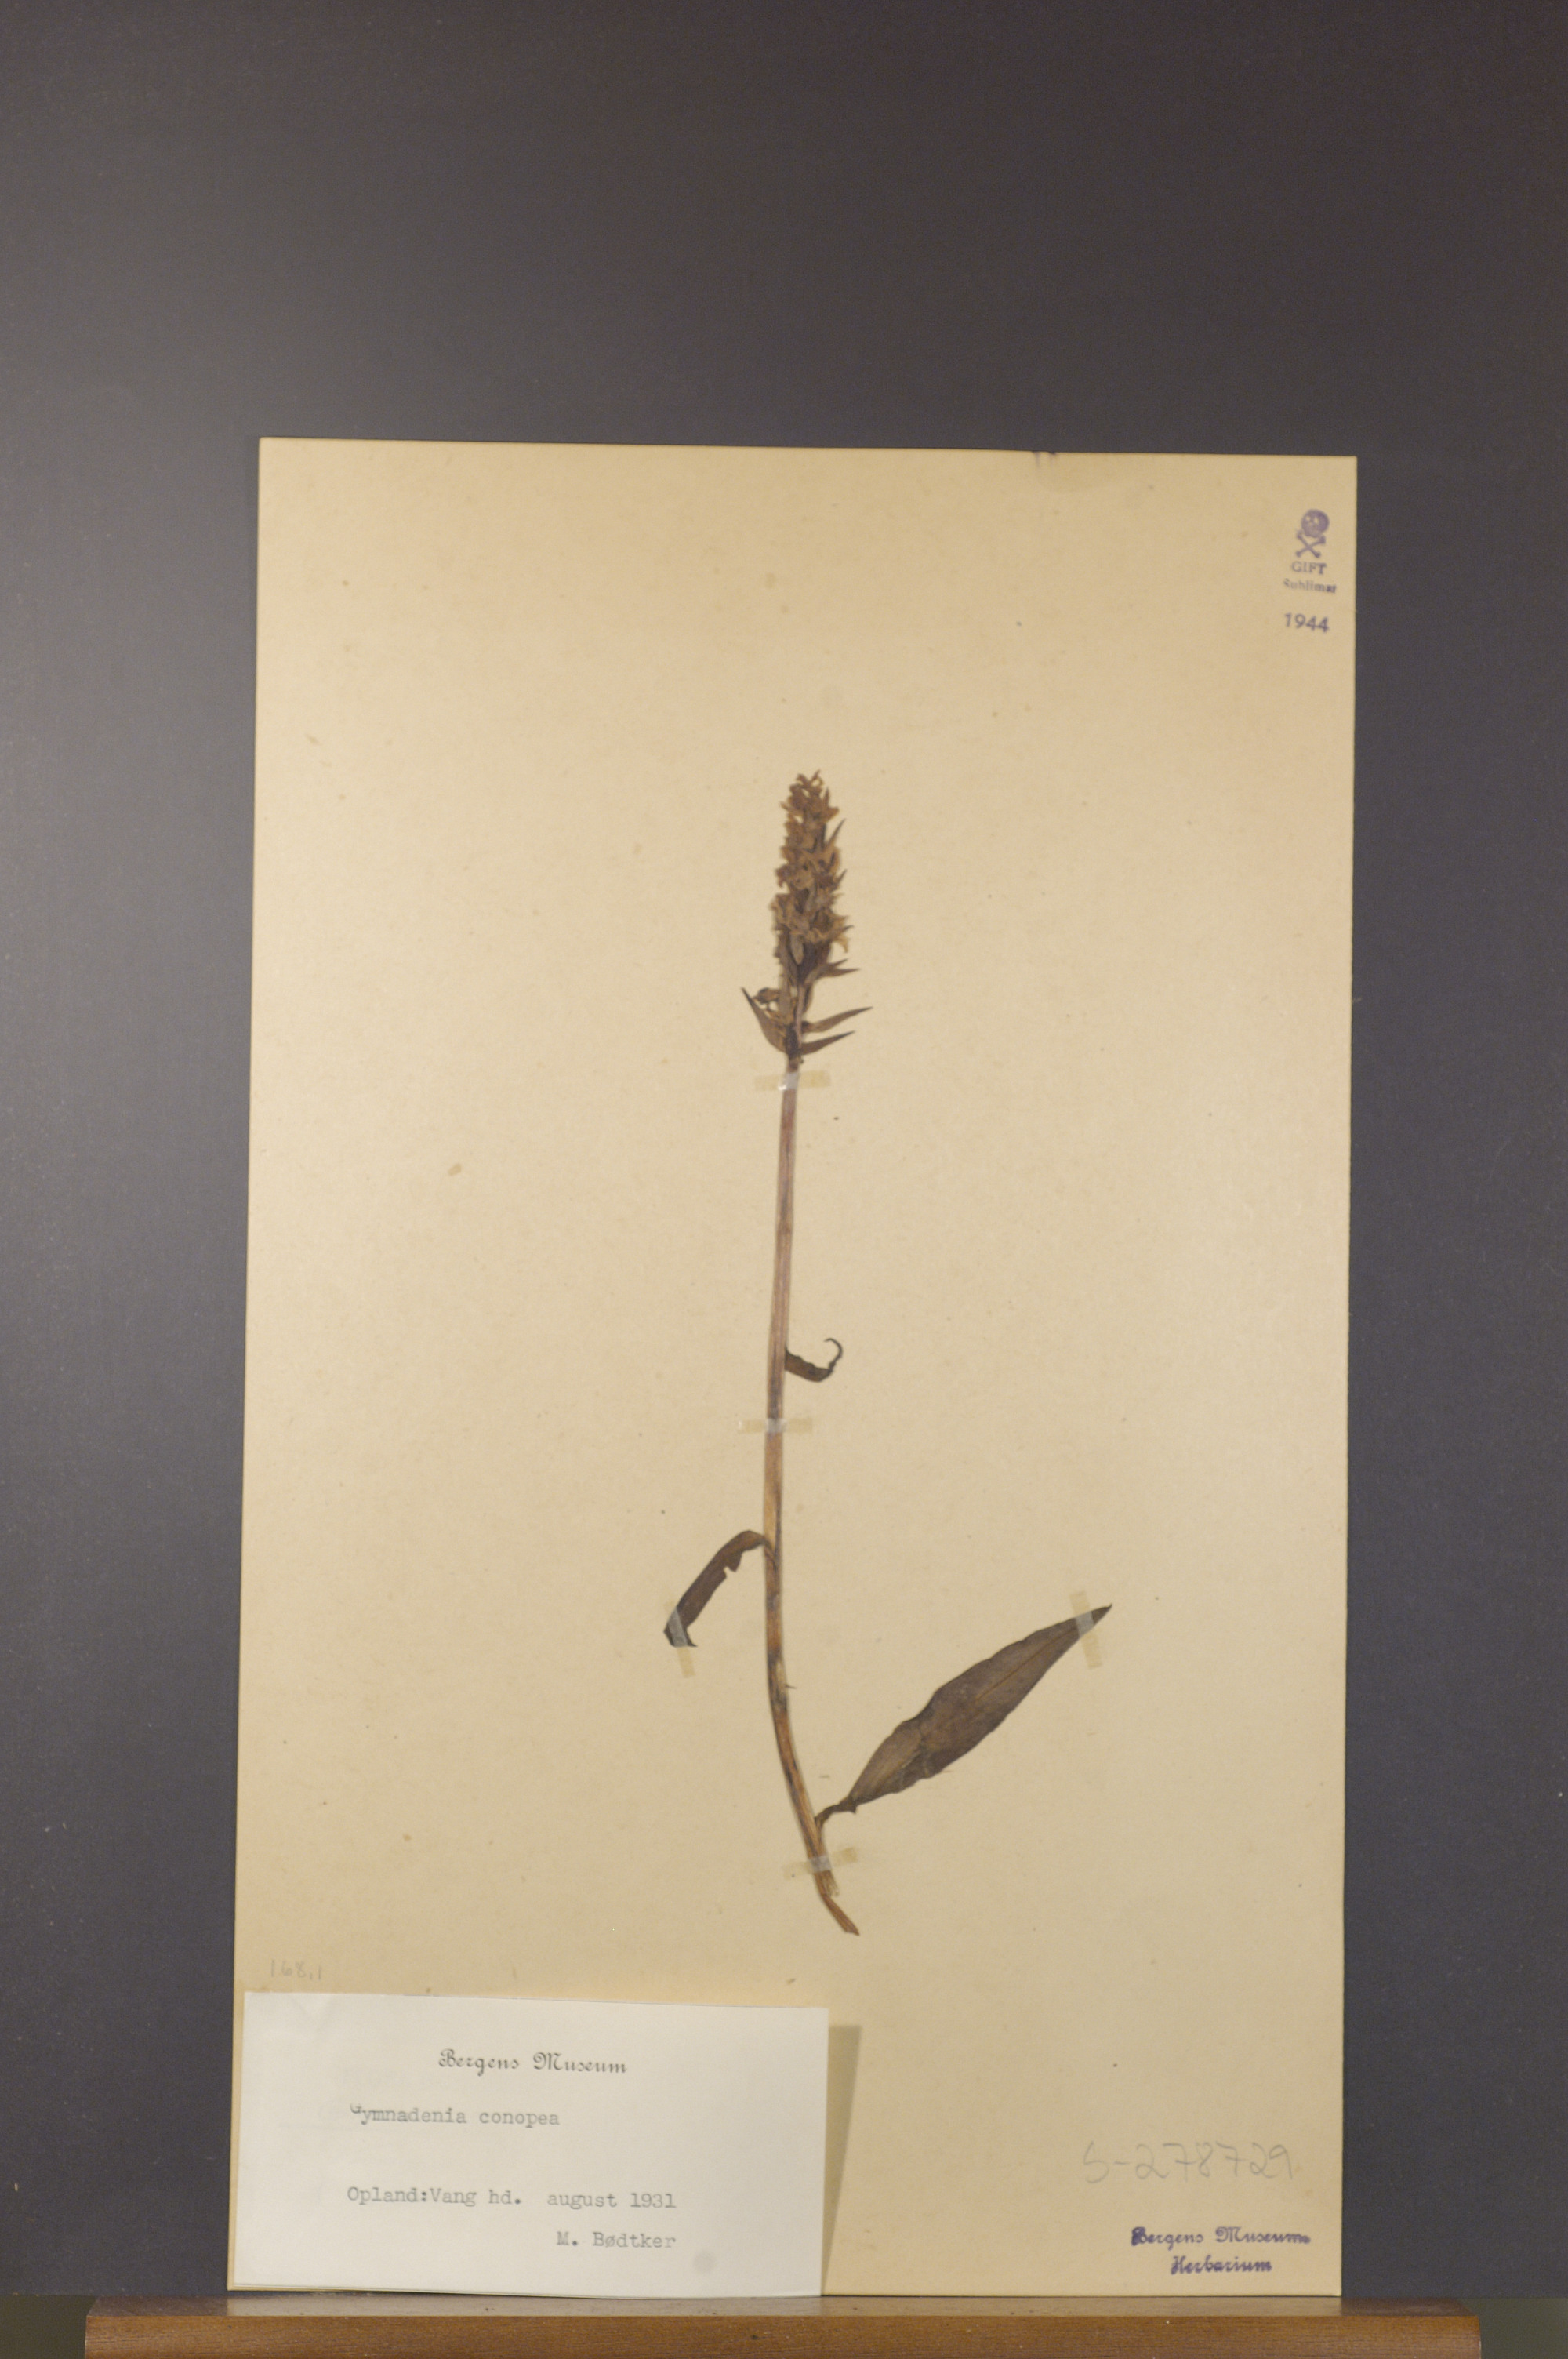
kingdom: Plantae
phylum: Tracheophyta
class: Liliopsida
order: Asparagales
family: Orchidaceae
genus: Gymnadenia
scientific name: Gymnadenia conopsea
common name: Fragrant orchid
